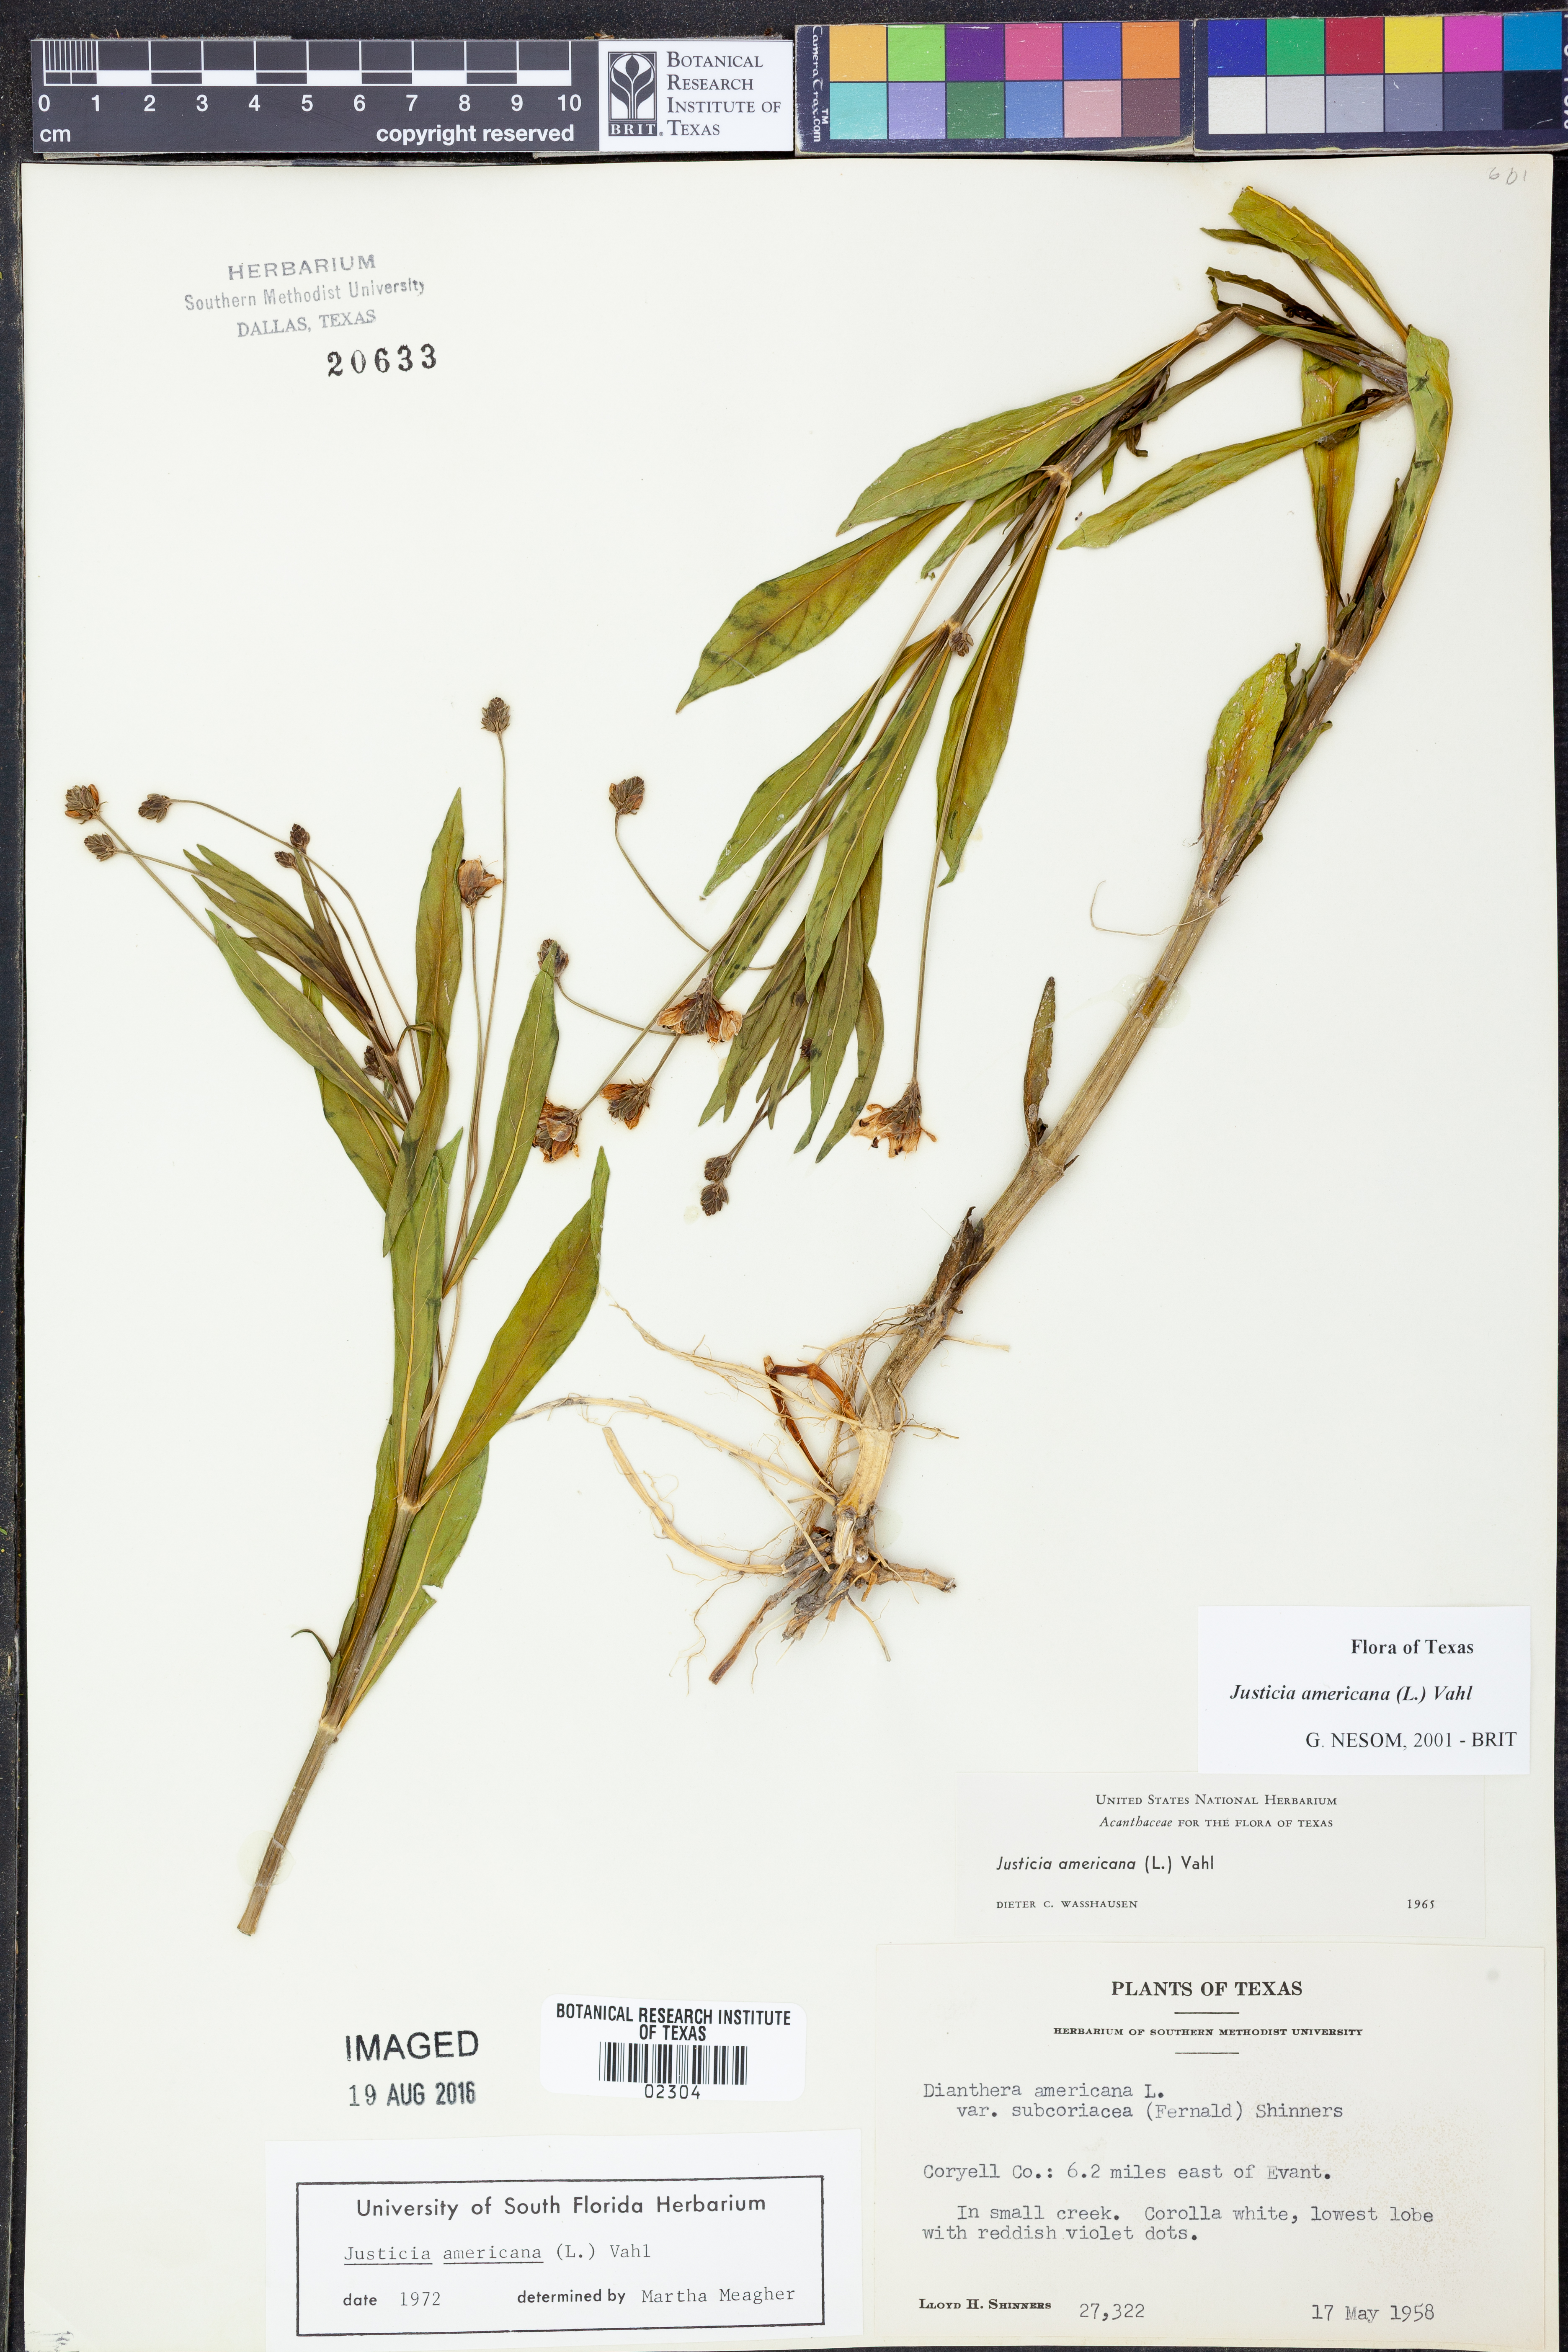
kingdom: Plantae
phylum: Tracheophyta
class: Magnoliopsida
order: Lamiales
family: Acanthaceae
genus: Dianthera
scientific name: Dianthera americana
